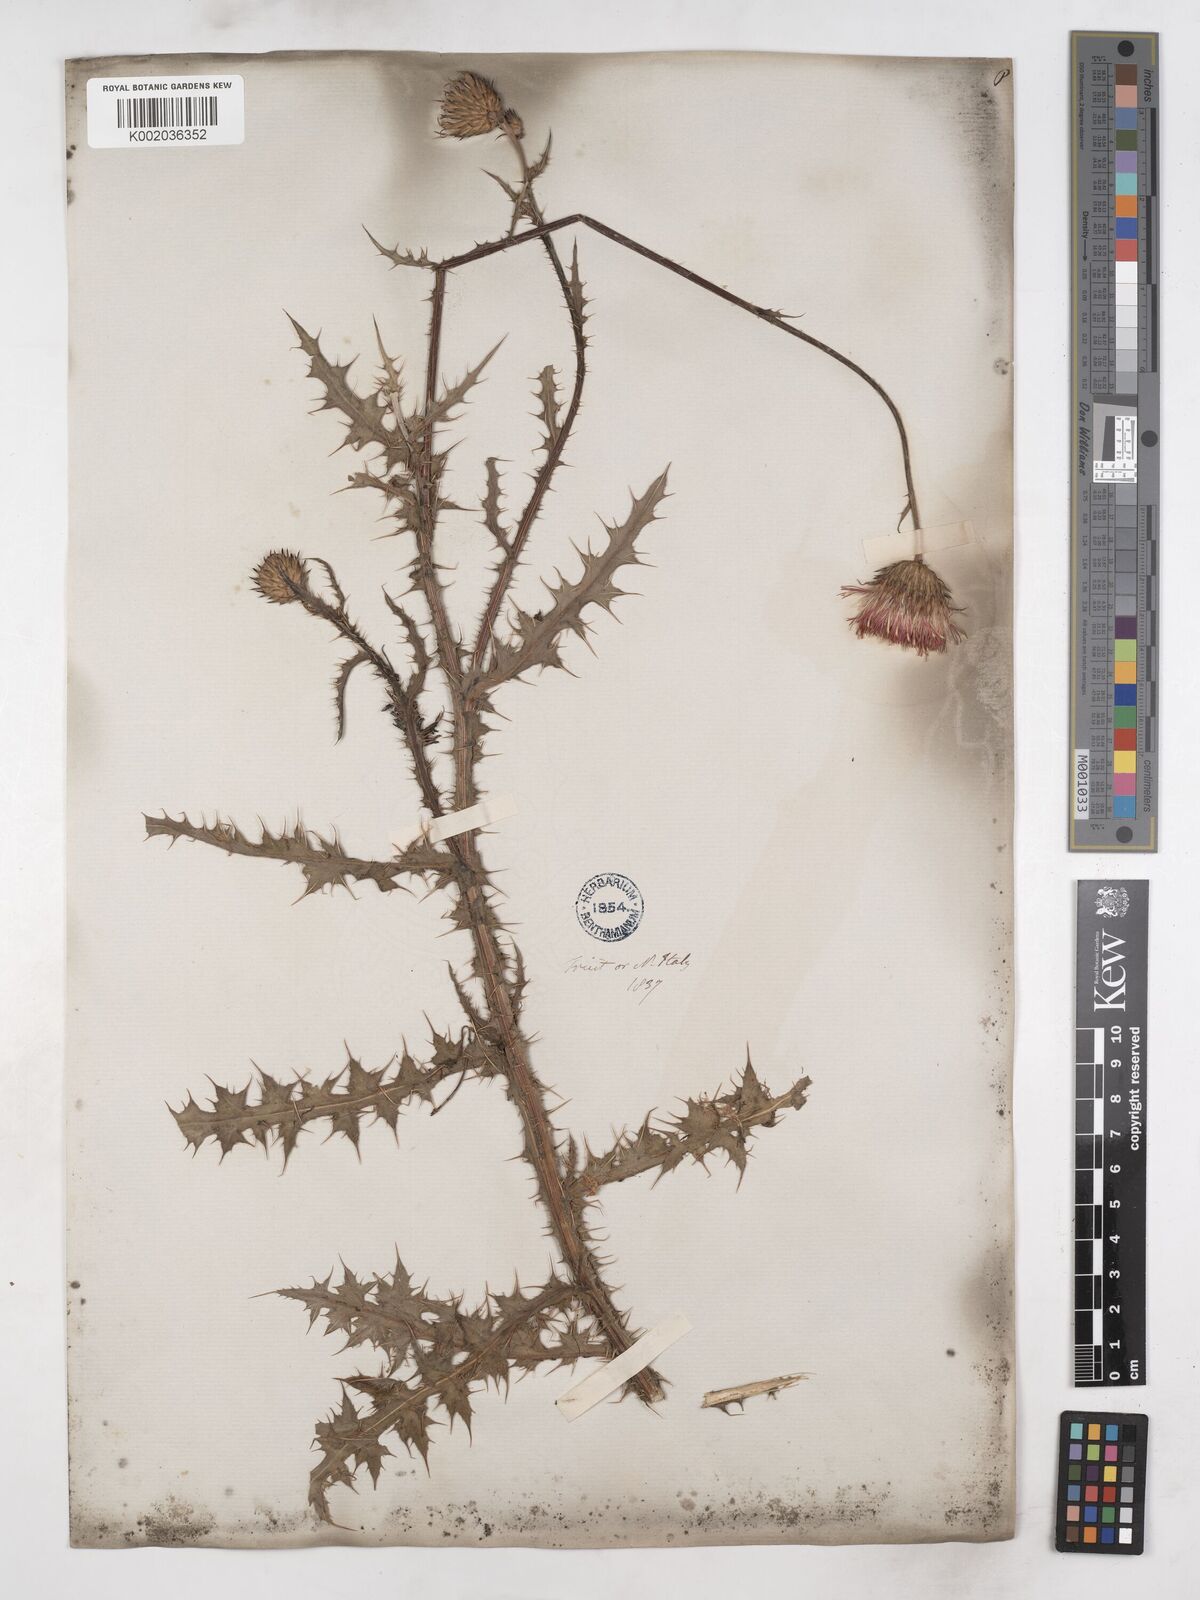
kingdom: Plantae
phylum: Tracheophyta
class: Magnoliopsida
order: Asterales
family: Asteraceae
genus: Carduus
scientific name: Carduus defloratus
